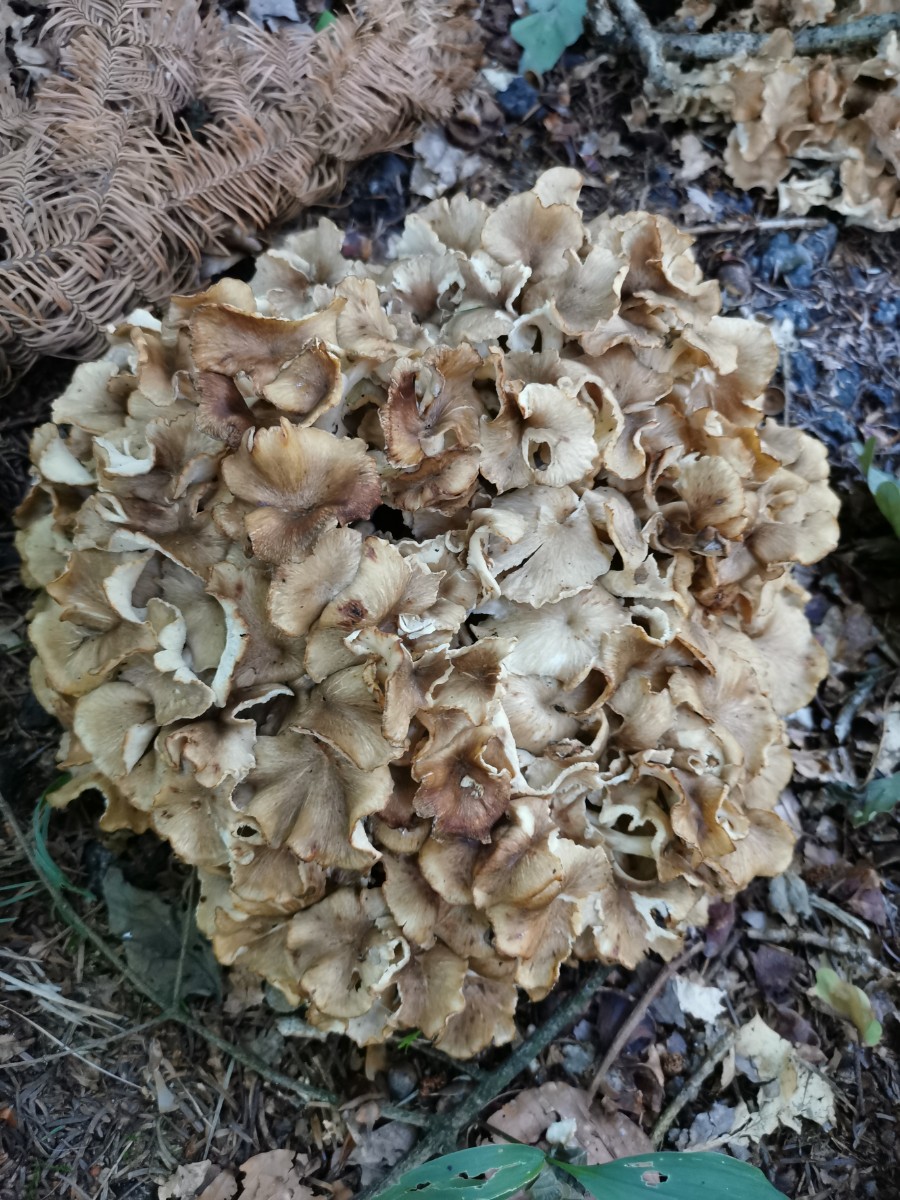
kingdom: Fungi
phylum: Basidiomycota
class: Agaricomycetes
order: Polyporales
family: Polyporaceae
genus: Polyporus
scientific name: Polyporus umbellatus
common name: skærmformet stilkporesvamp
